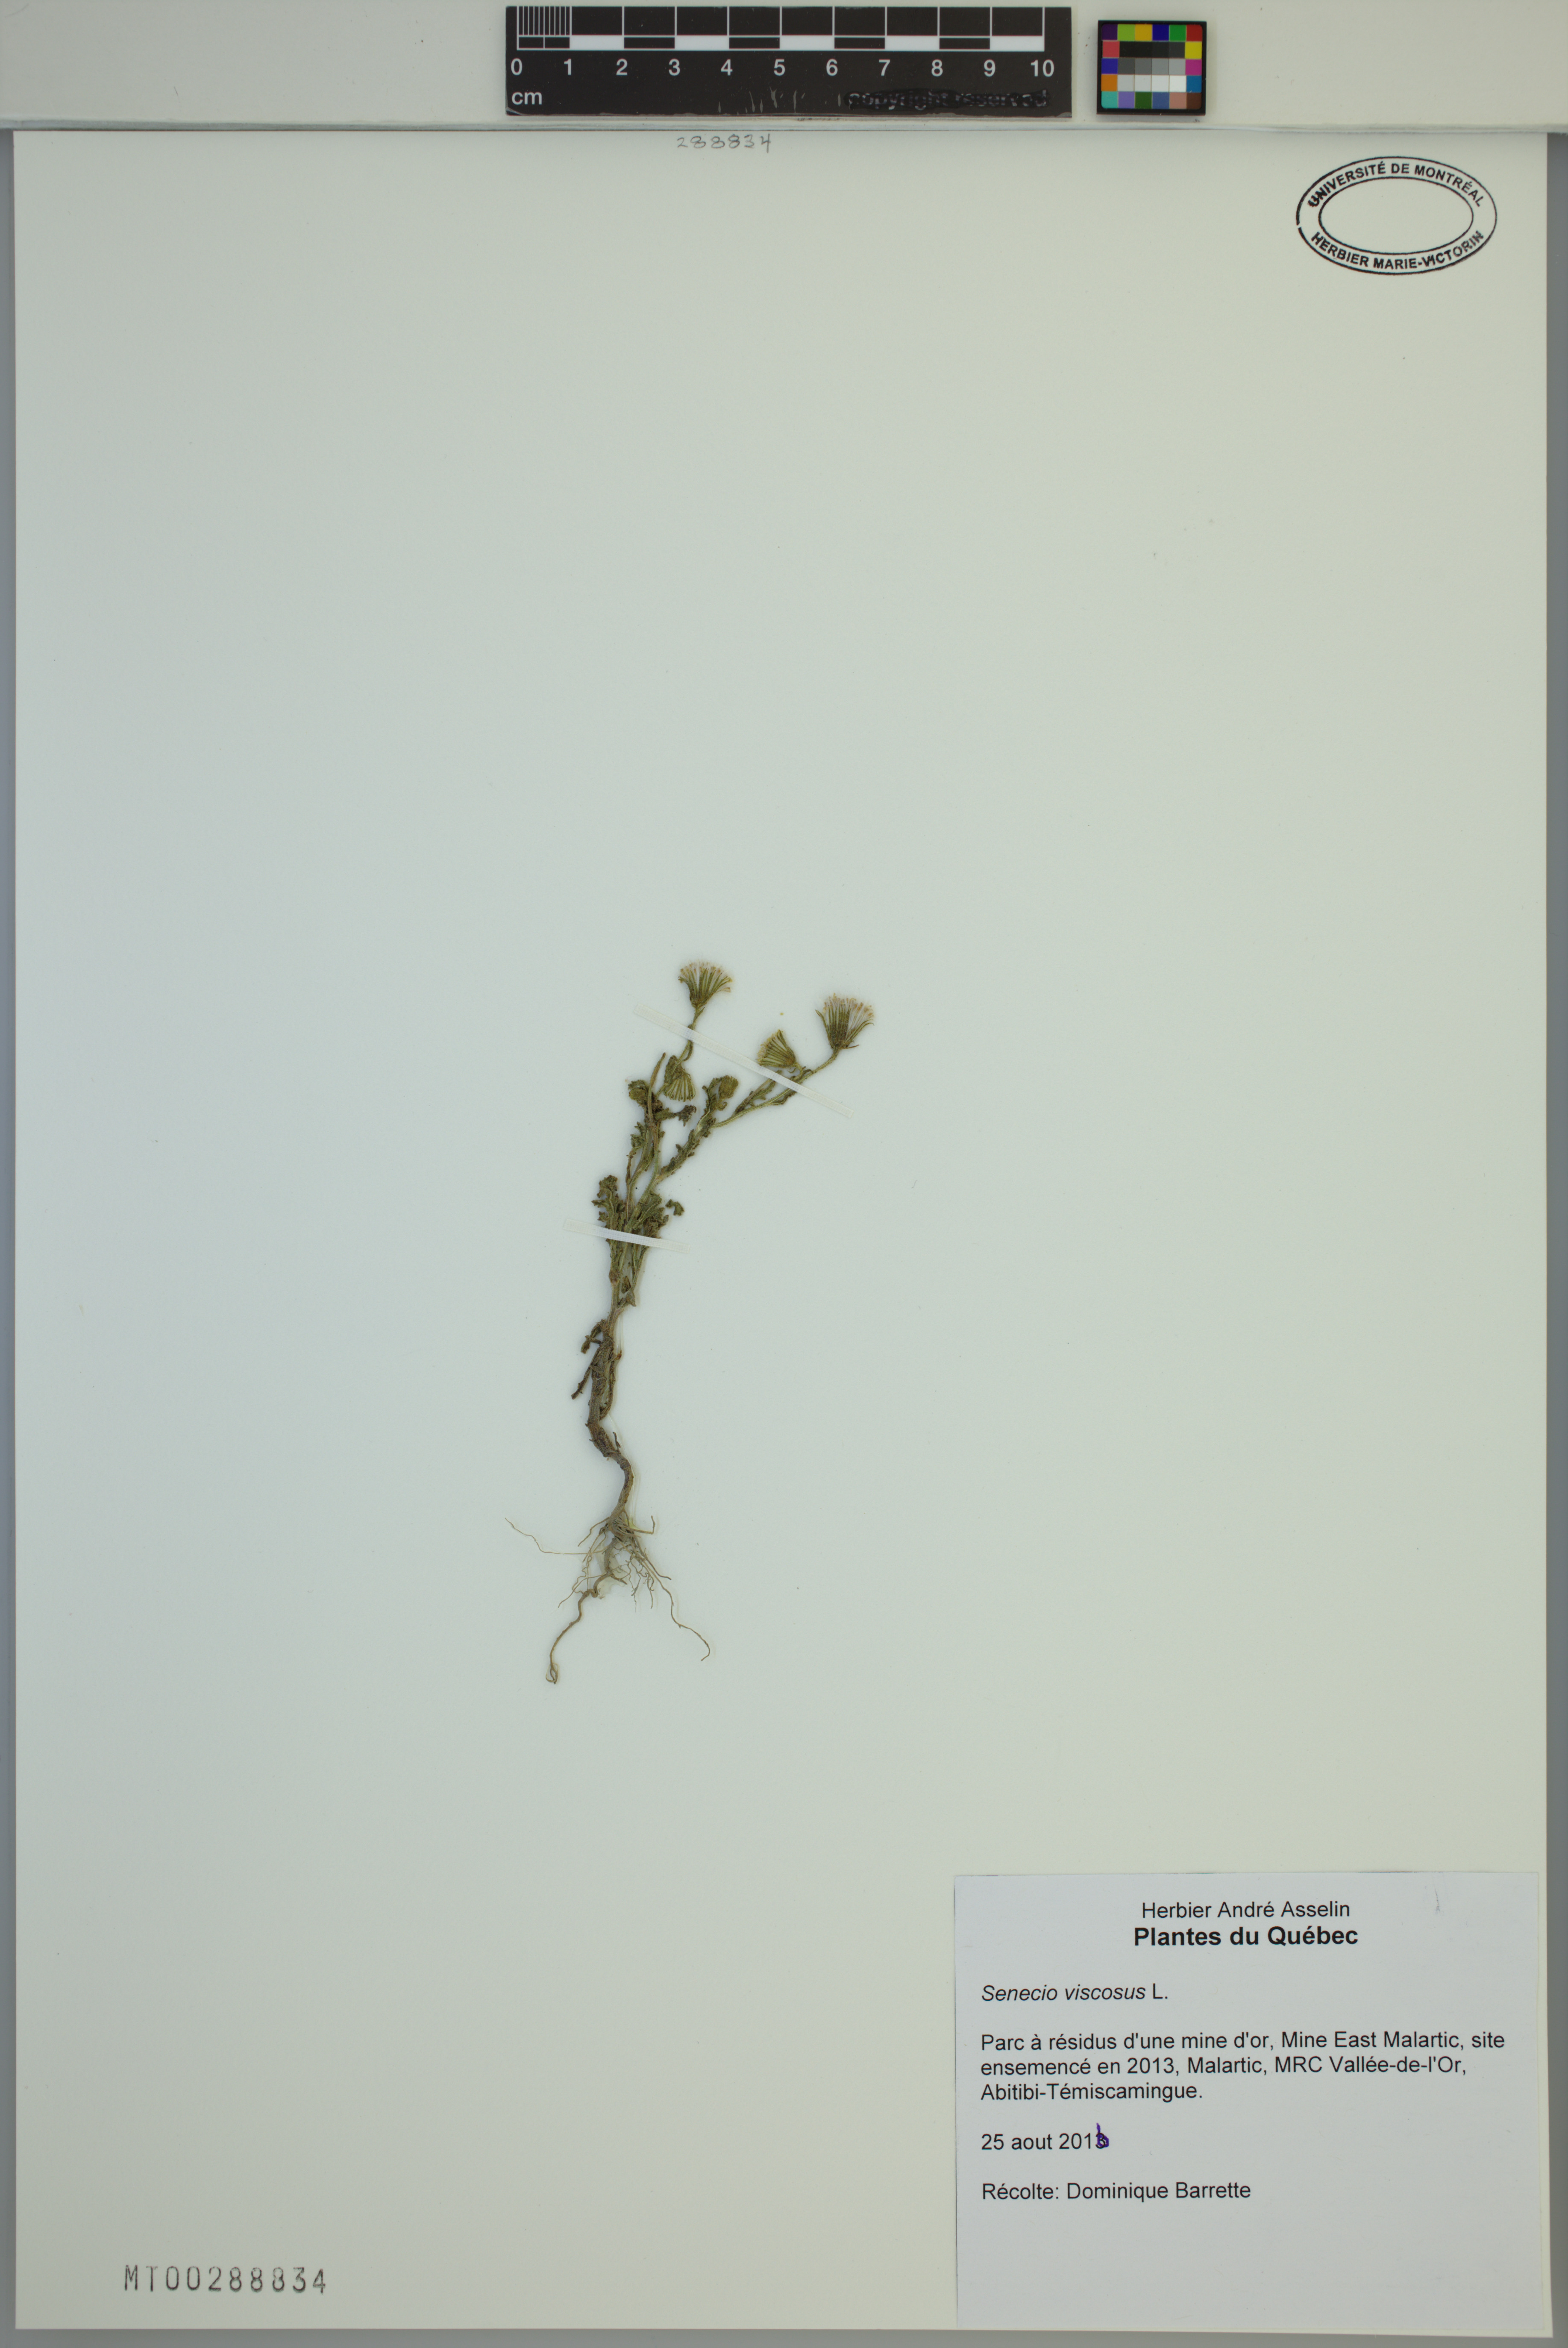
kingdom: Plantae
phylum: Tracheophyta
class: Magnoliopsida
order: Asterales
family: Asteraceae
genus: Senecio
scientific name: Senecio viscosus
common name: Sticky groundsel
